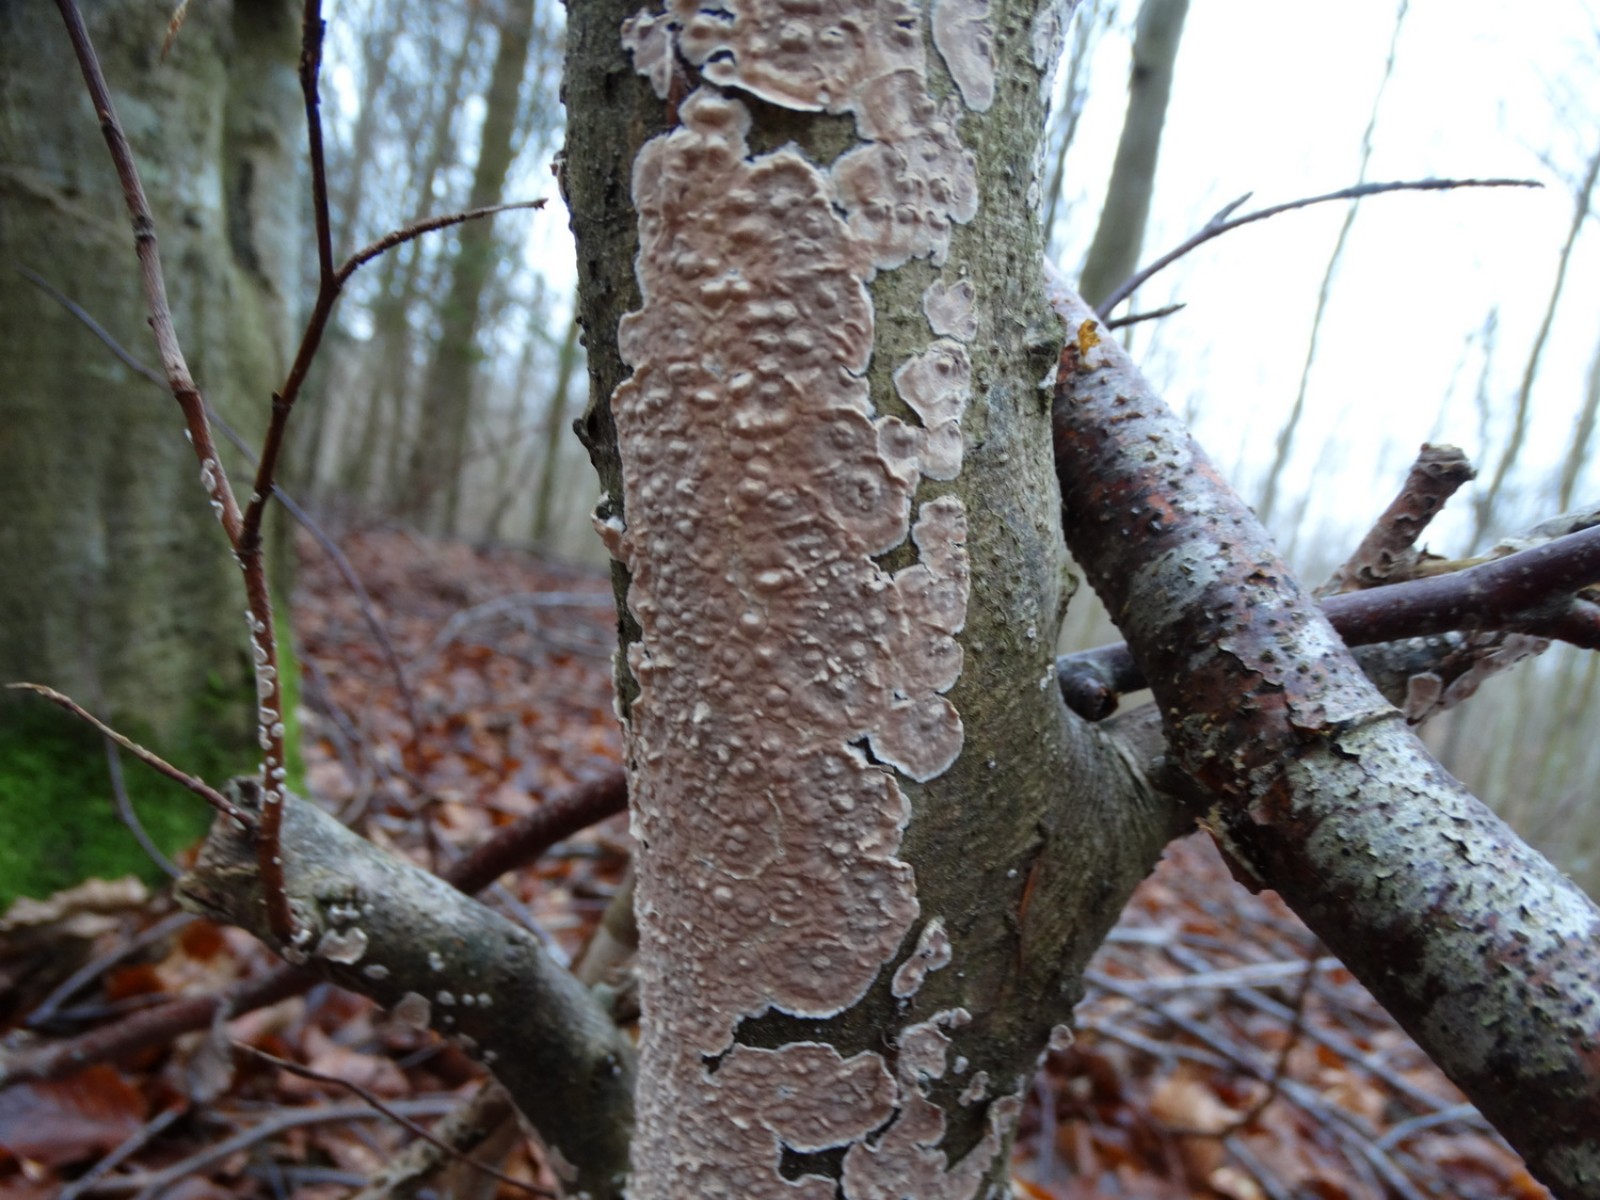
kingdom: Fungi
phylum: Basidiomycota
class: Agaricomycetes
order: Agaricales
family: Physalacriaceae
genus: Cylindrobasidium
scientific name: Cylindrobasidium evolvens
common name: sprækkehinde
